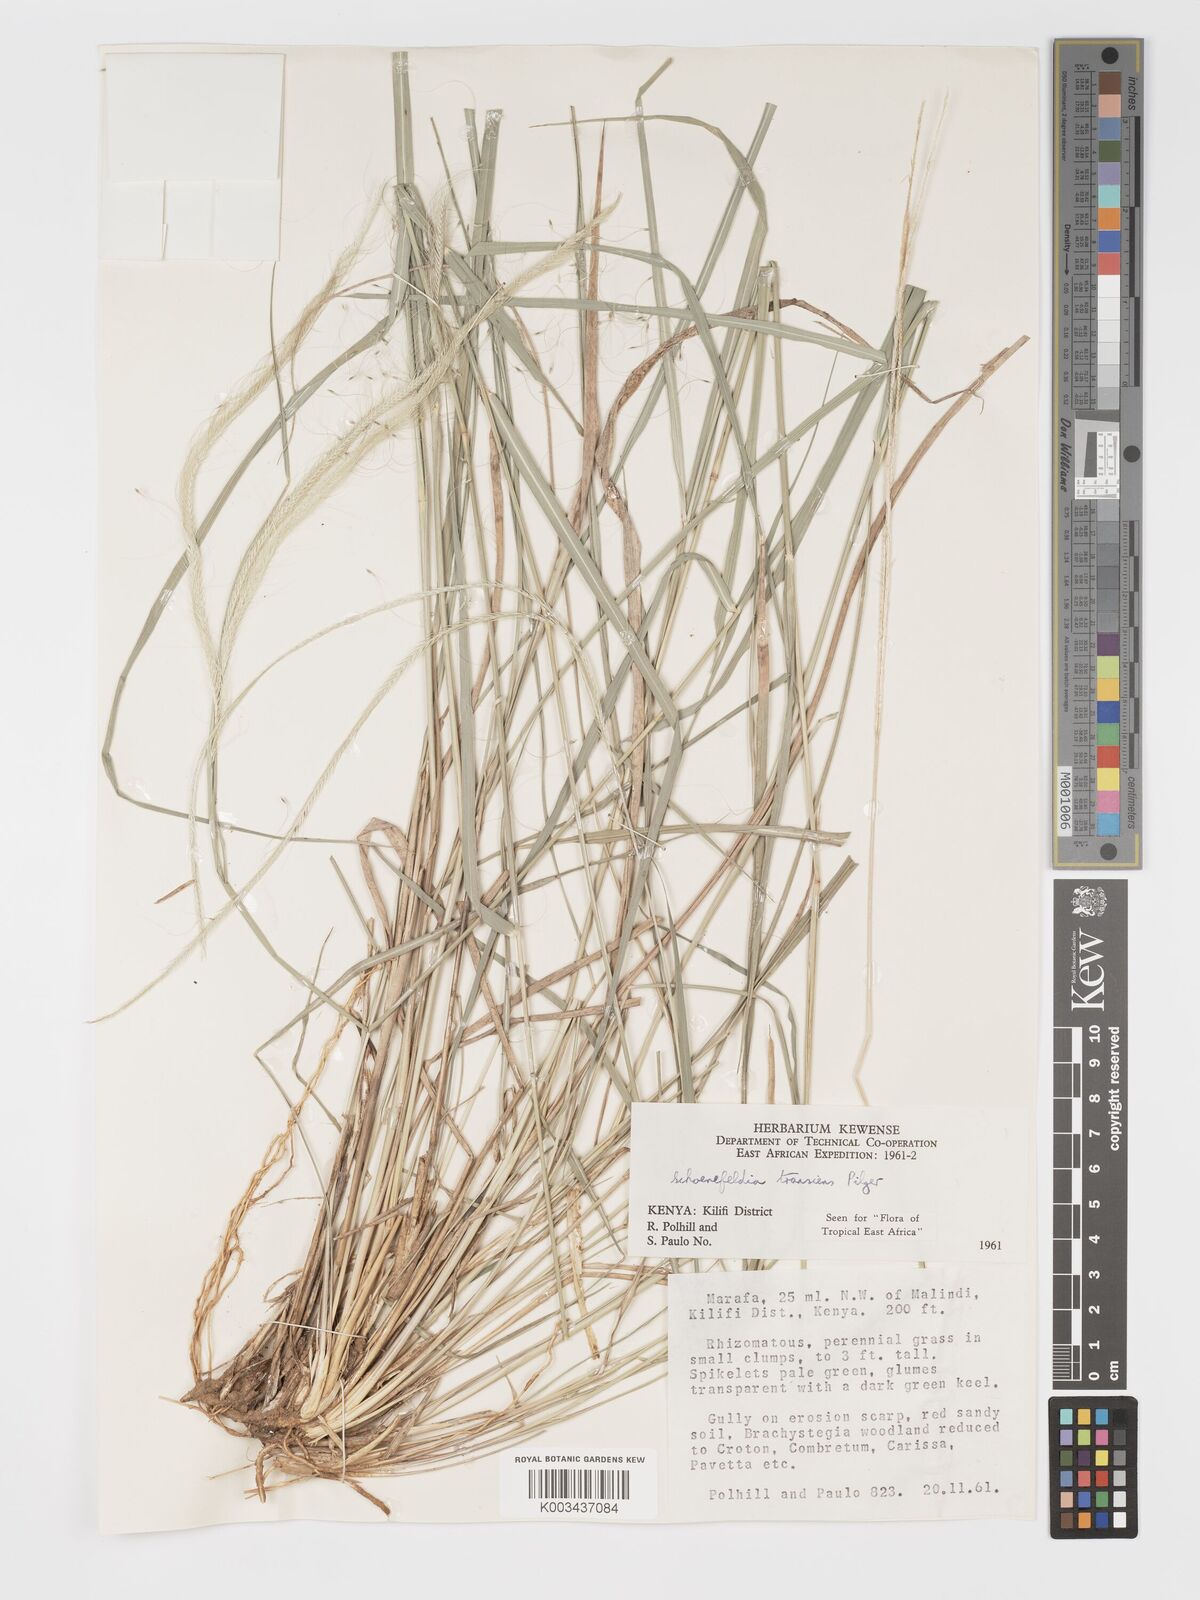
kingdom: Plantae
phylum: Tracheophyta
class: Liliopsida
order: Poales
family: Poaceae
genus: Schoenefeldia
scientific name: Schoenefeldia transiens
